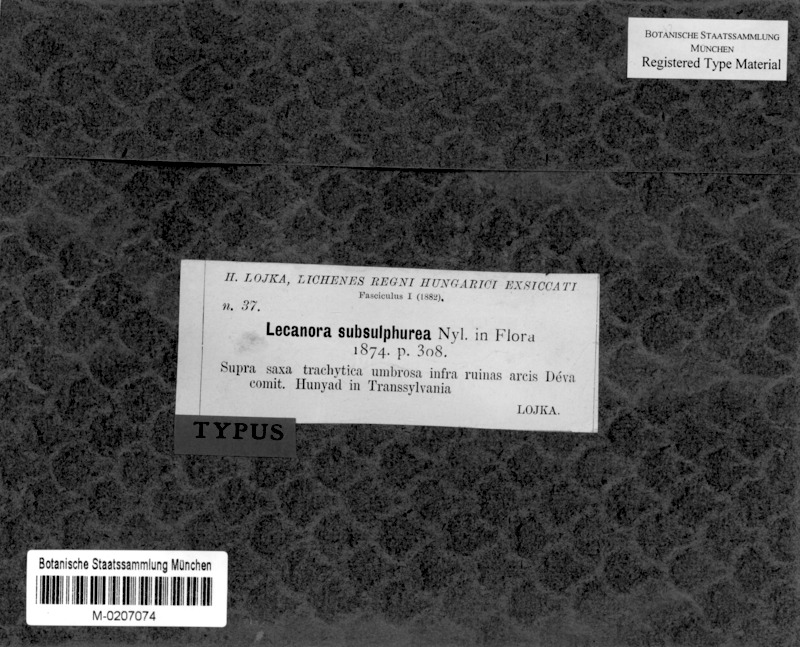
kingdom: Fungi
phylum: Ascomycota
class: Lecanoromycetes
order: Lecanorales
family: Lecanoraceae
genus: Lecanora
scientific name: Lecanora subsulphurea
